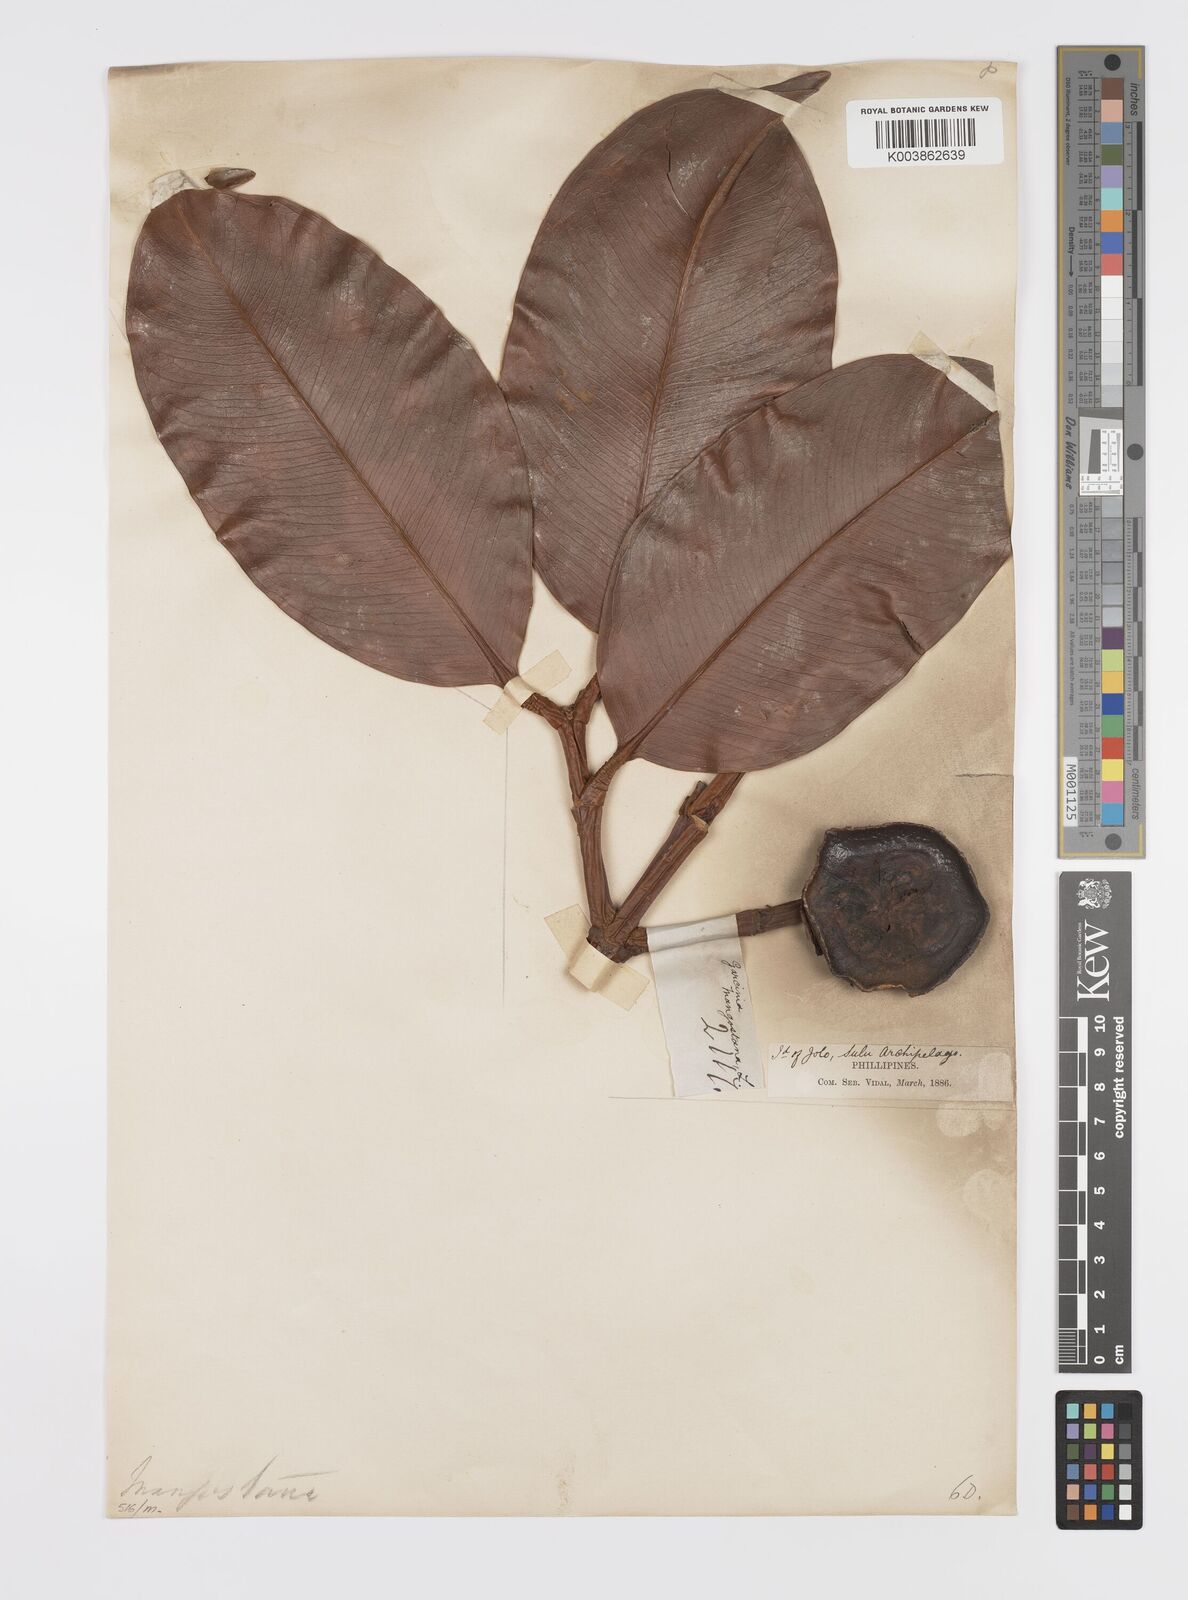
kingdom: Plantae
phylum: Tracheophyta
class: Magnoliopsida
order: Malpighiales
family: Clusiaceae
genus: Garcinia
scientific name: Garcinia mangostana
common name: Mangosteen
